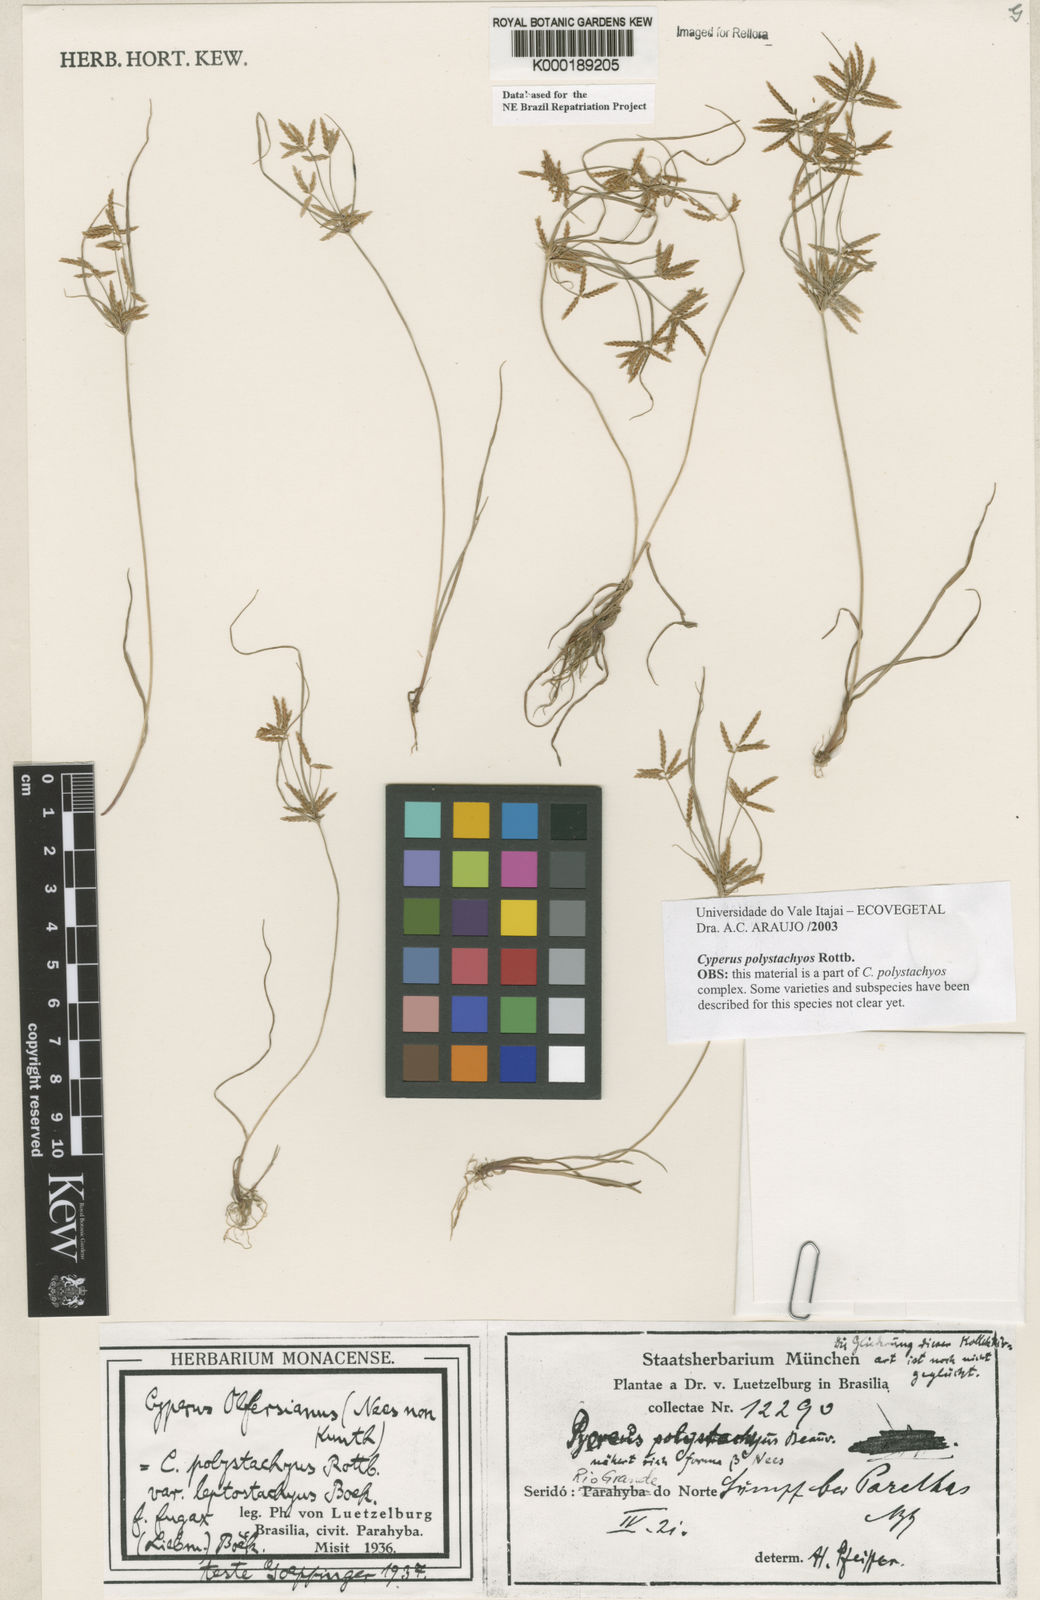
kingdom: Plantae
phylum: Tracheophyta
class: Liliopsida
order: Poales
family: Cyperaceae
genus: Cyperus
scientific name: Cyperus polystachyos
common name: Bunchy flat sedge
